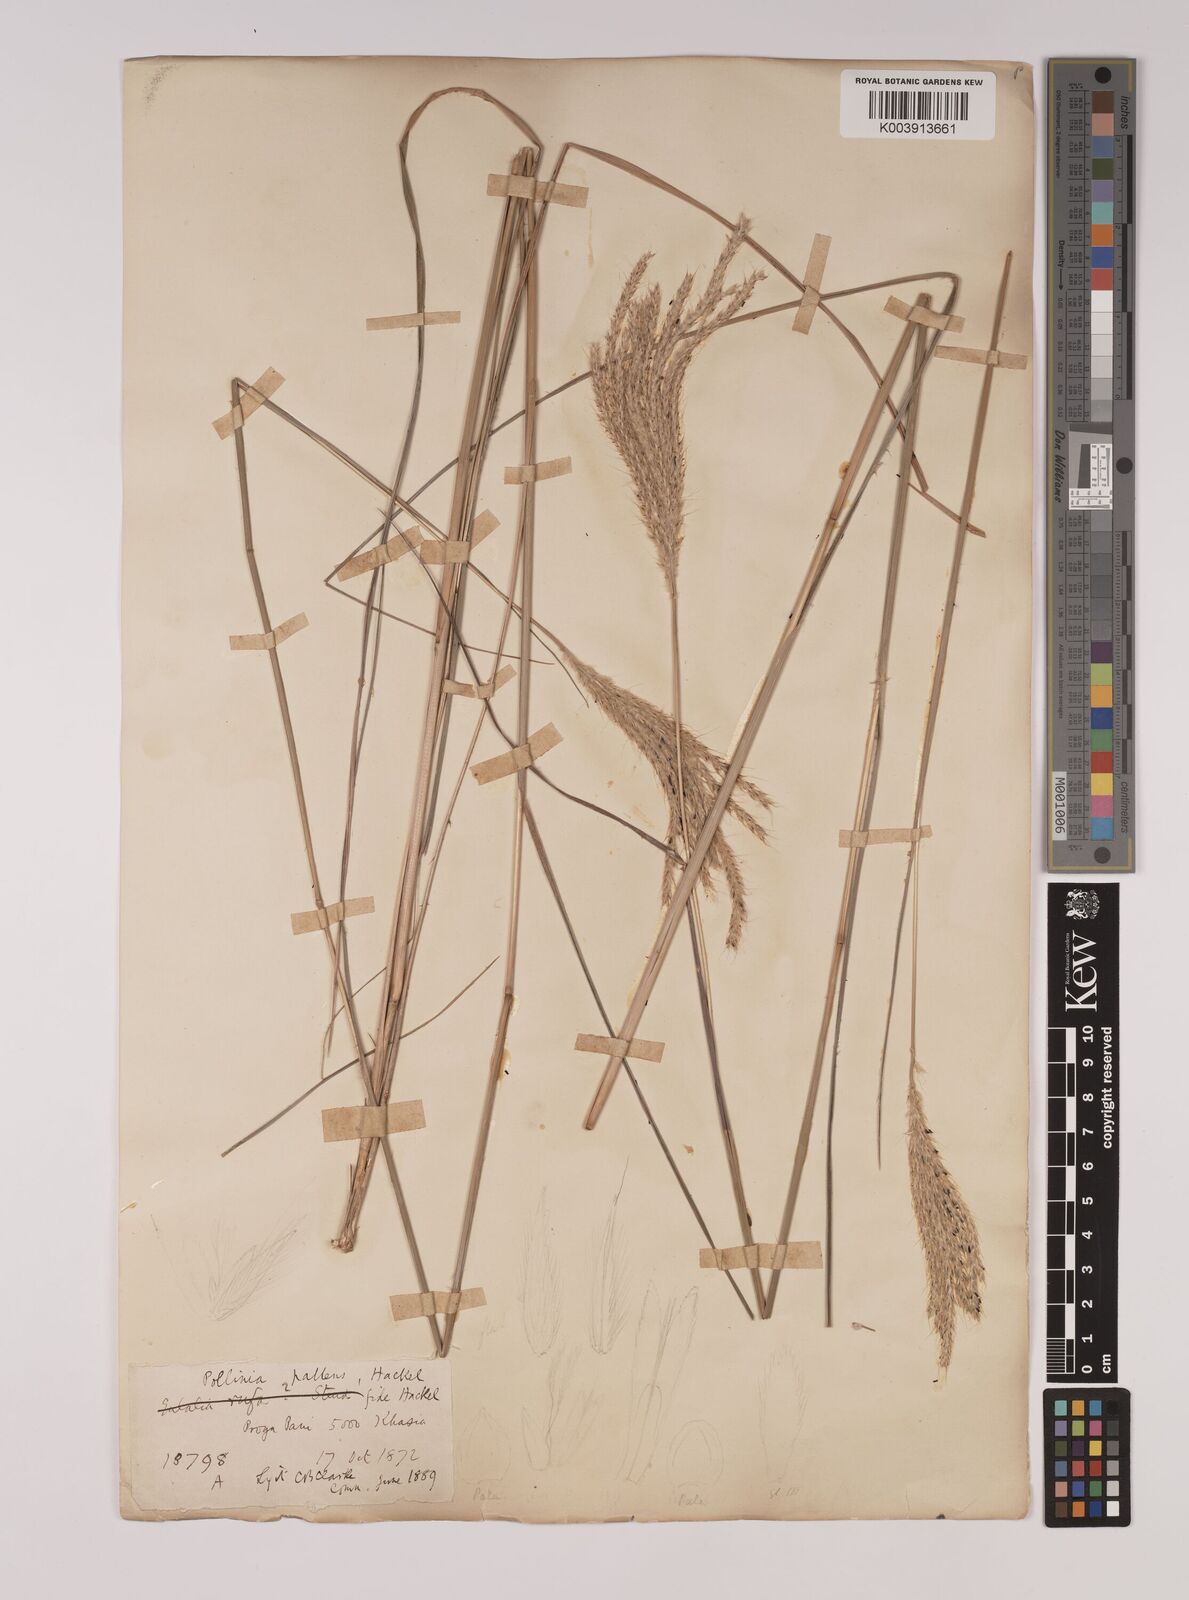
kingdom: Plantae
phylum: Tracheophyta
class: Liliopsida
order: Poales
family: Poaceae
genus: Eulalia
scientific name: Eulalia pallens
